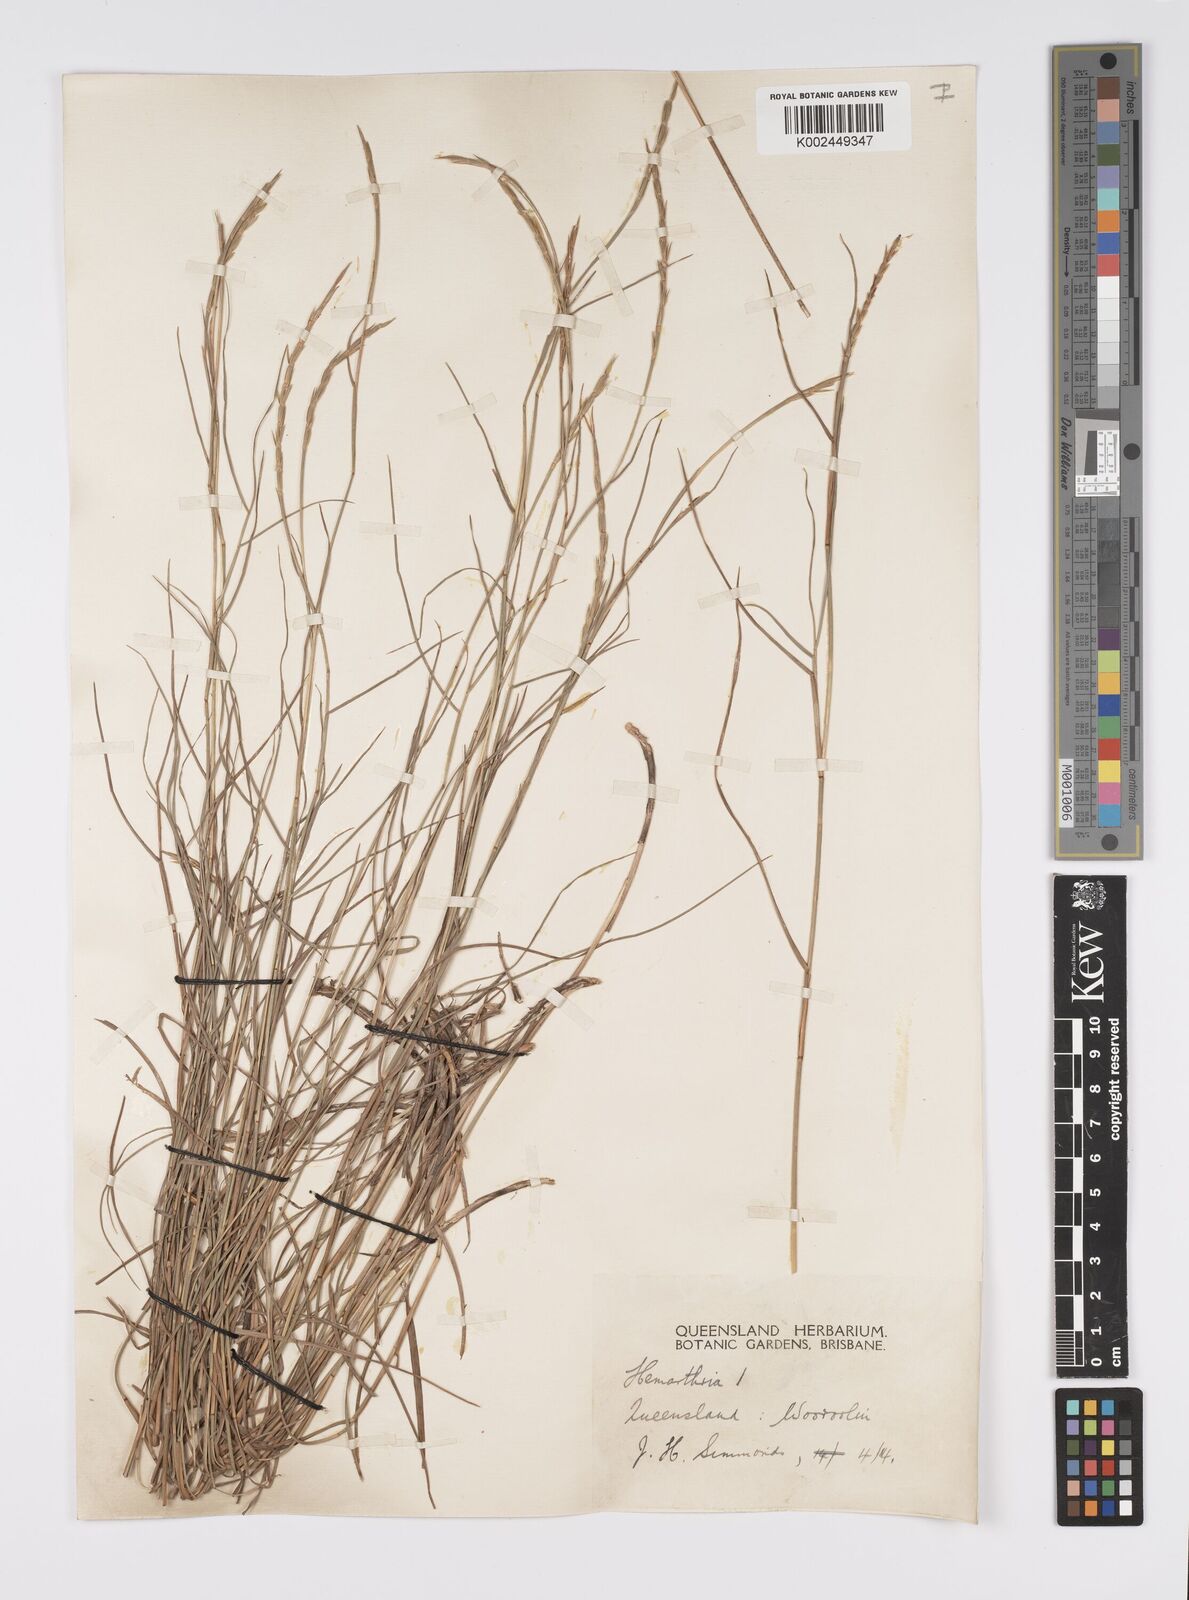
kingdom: Plantae
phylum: Tracheophyta
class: Liliopsida
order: Poales
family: Poaceae
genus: Hemarthria
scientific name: Hemarthria uncinata
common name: Matgrass
